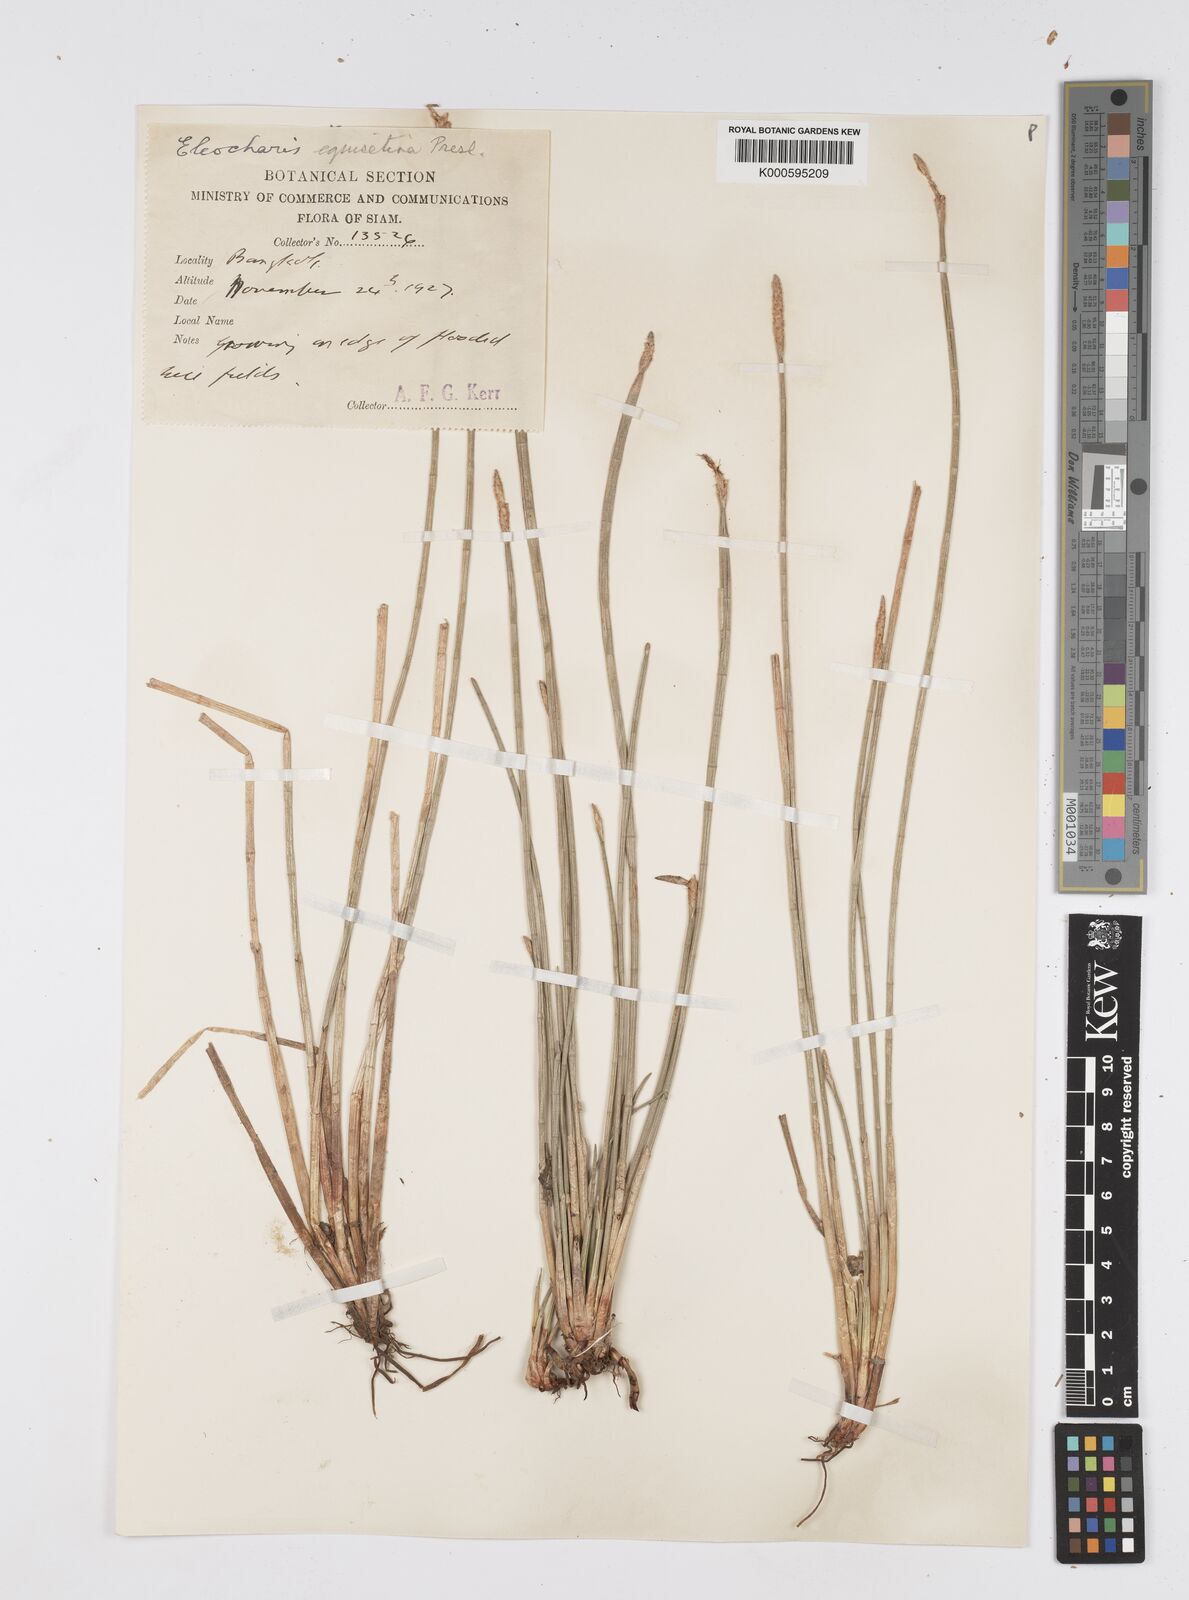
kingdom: Plantae
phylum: Tracheophyta
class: Liliopsida
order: Poales
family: Cyperaceae
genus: Eleocharis
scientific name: Eleocharis dulcis
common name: Chinese water chestnut
